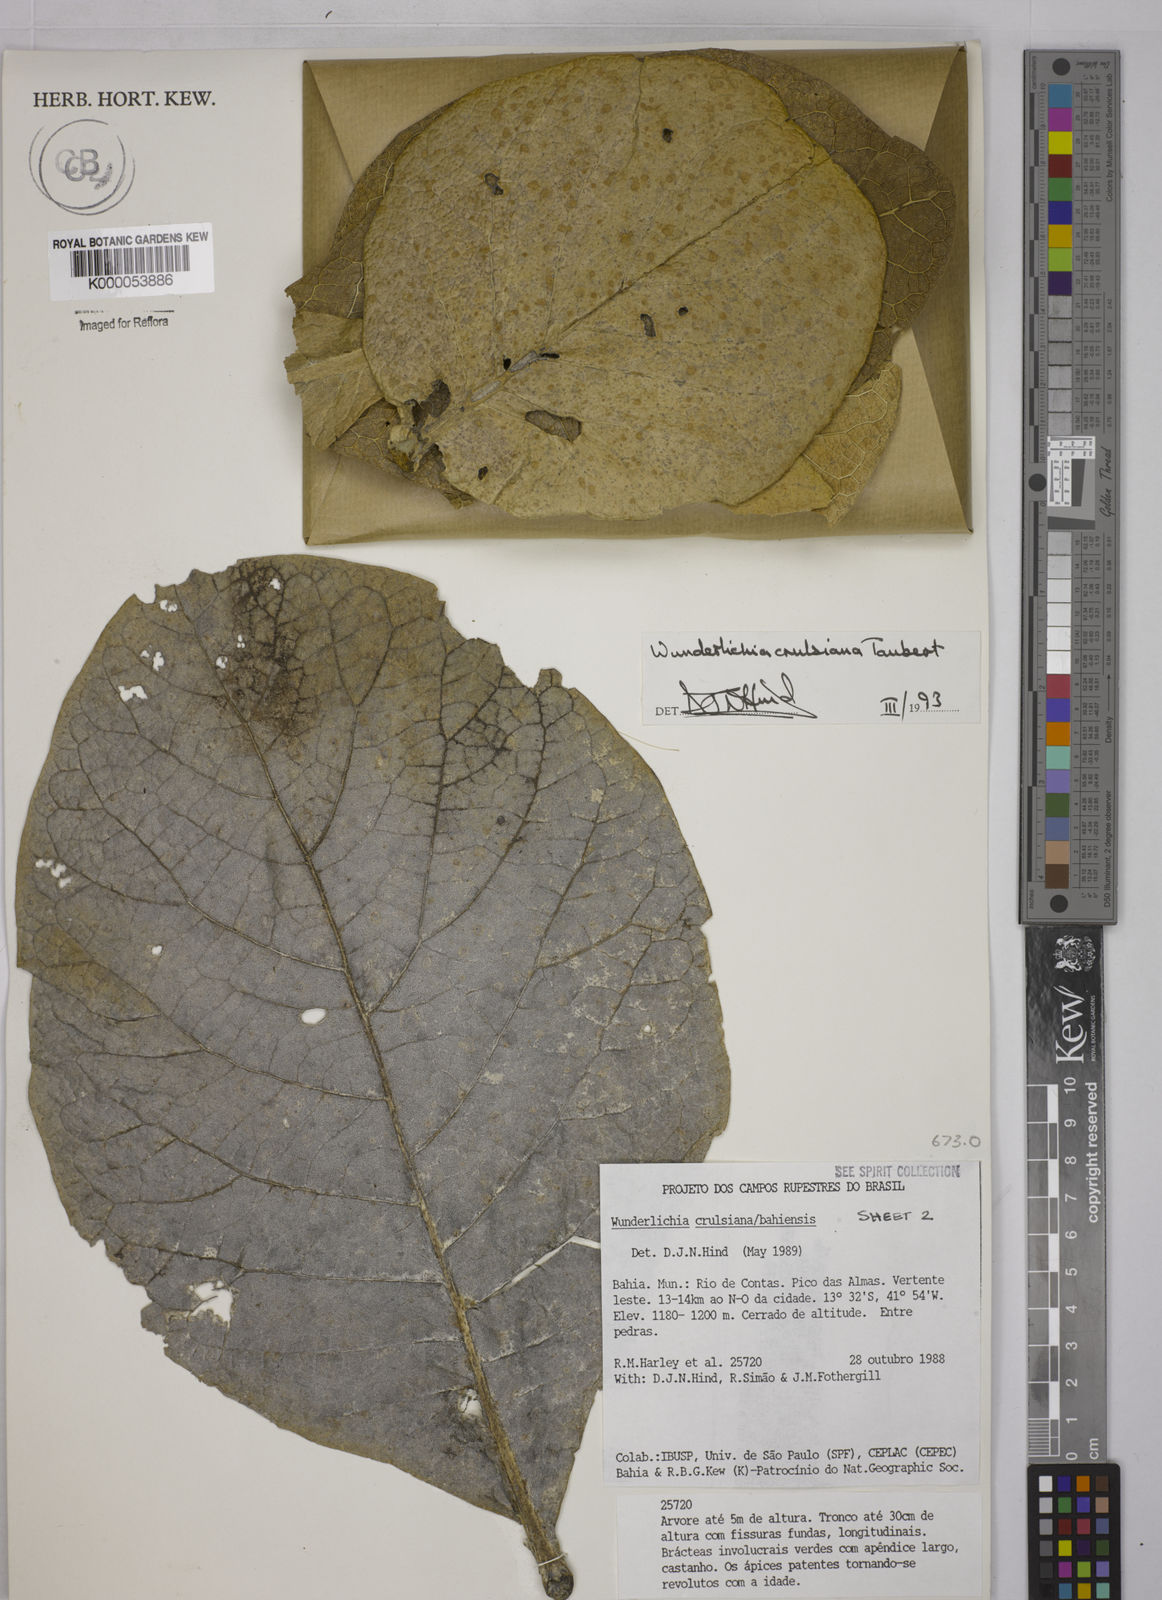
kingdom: Plantae
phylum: Tracheophyta
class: Magnoliopsida
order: Asterales
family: Asteraceae
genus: Wunderlichia
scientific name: Wunderlichia
